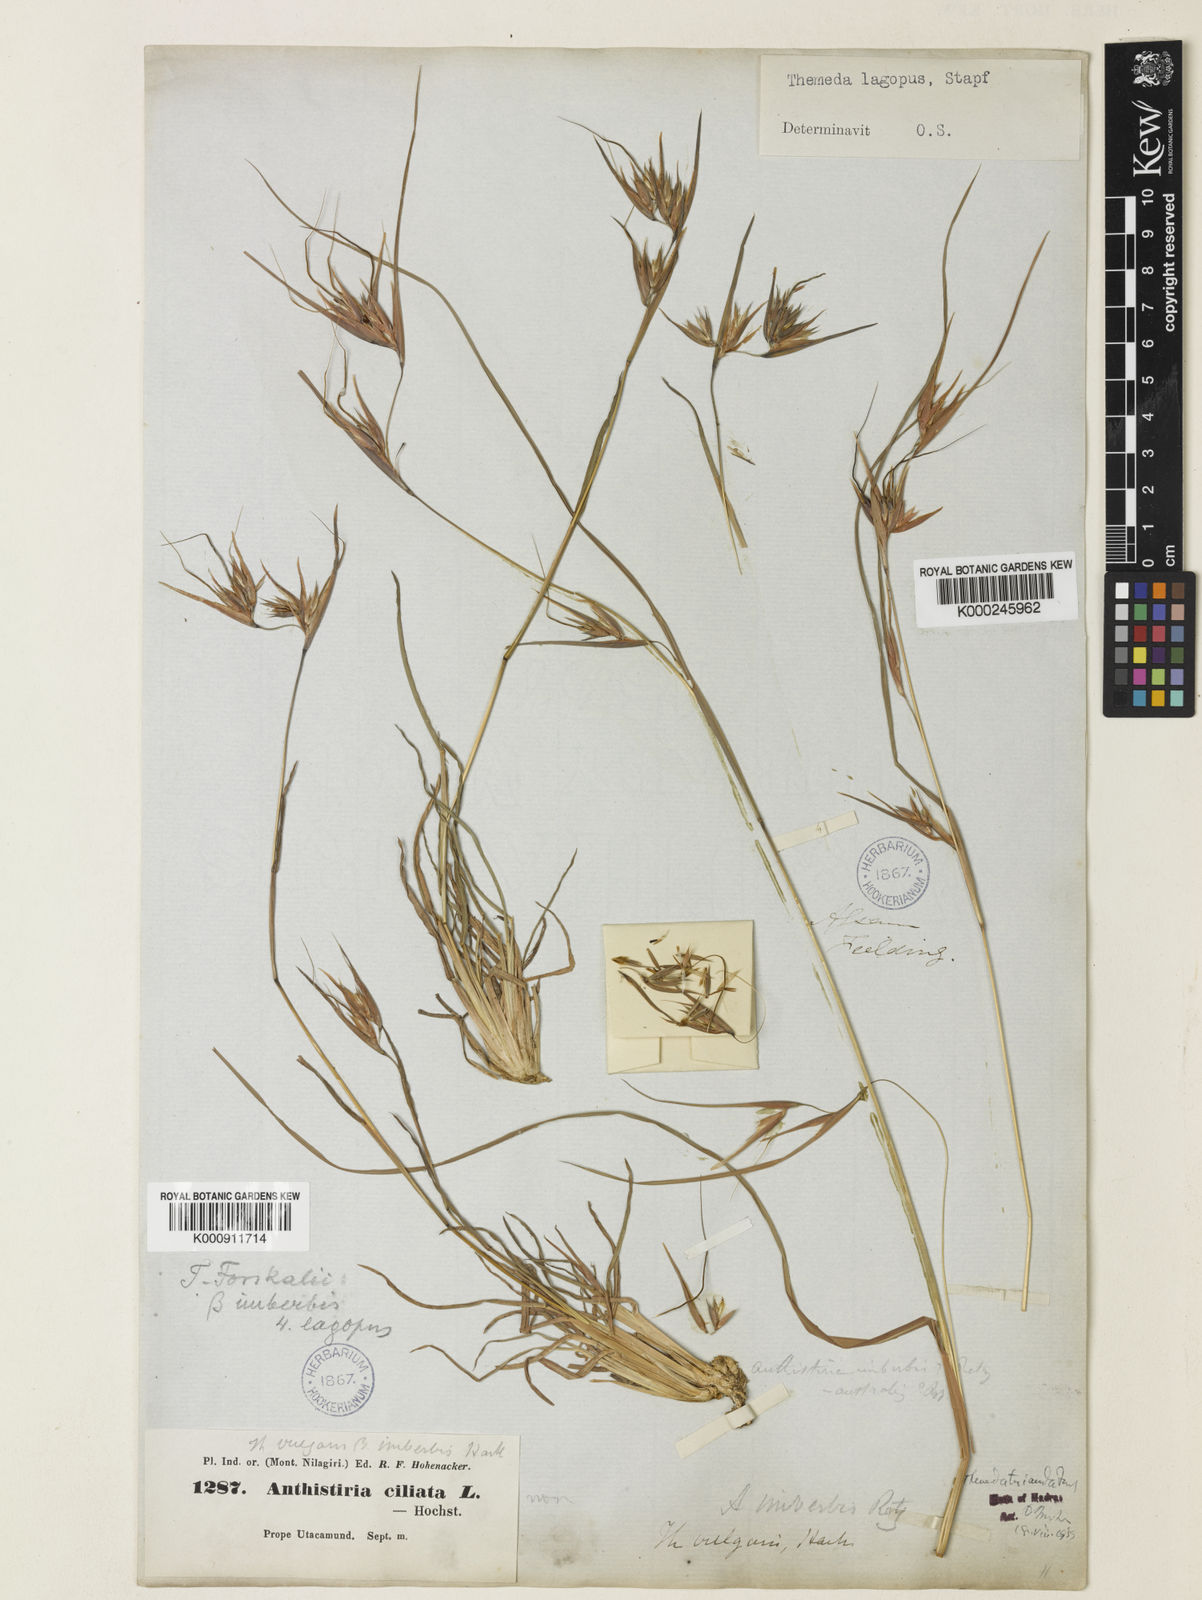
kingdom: Plantae
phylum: Tracheophyta
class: Liliopsida
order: Poales
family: Poaceae
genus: Themeda
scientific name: Themeda triandra
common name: Kangaroo grass
